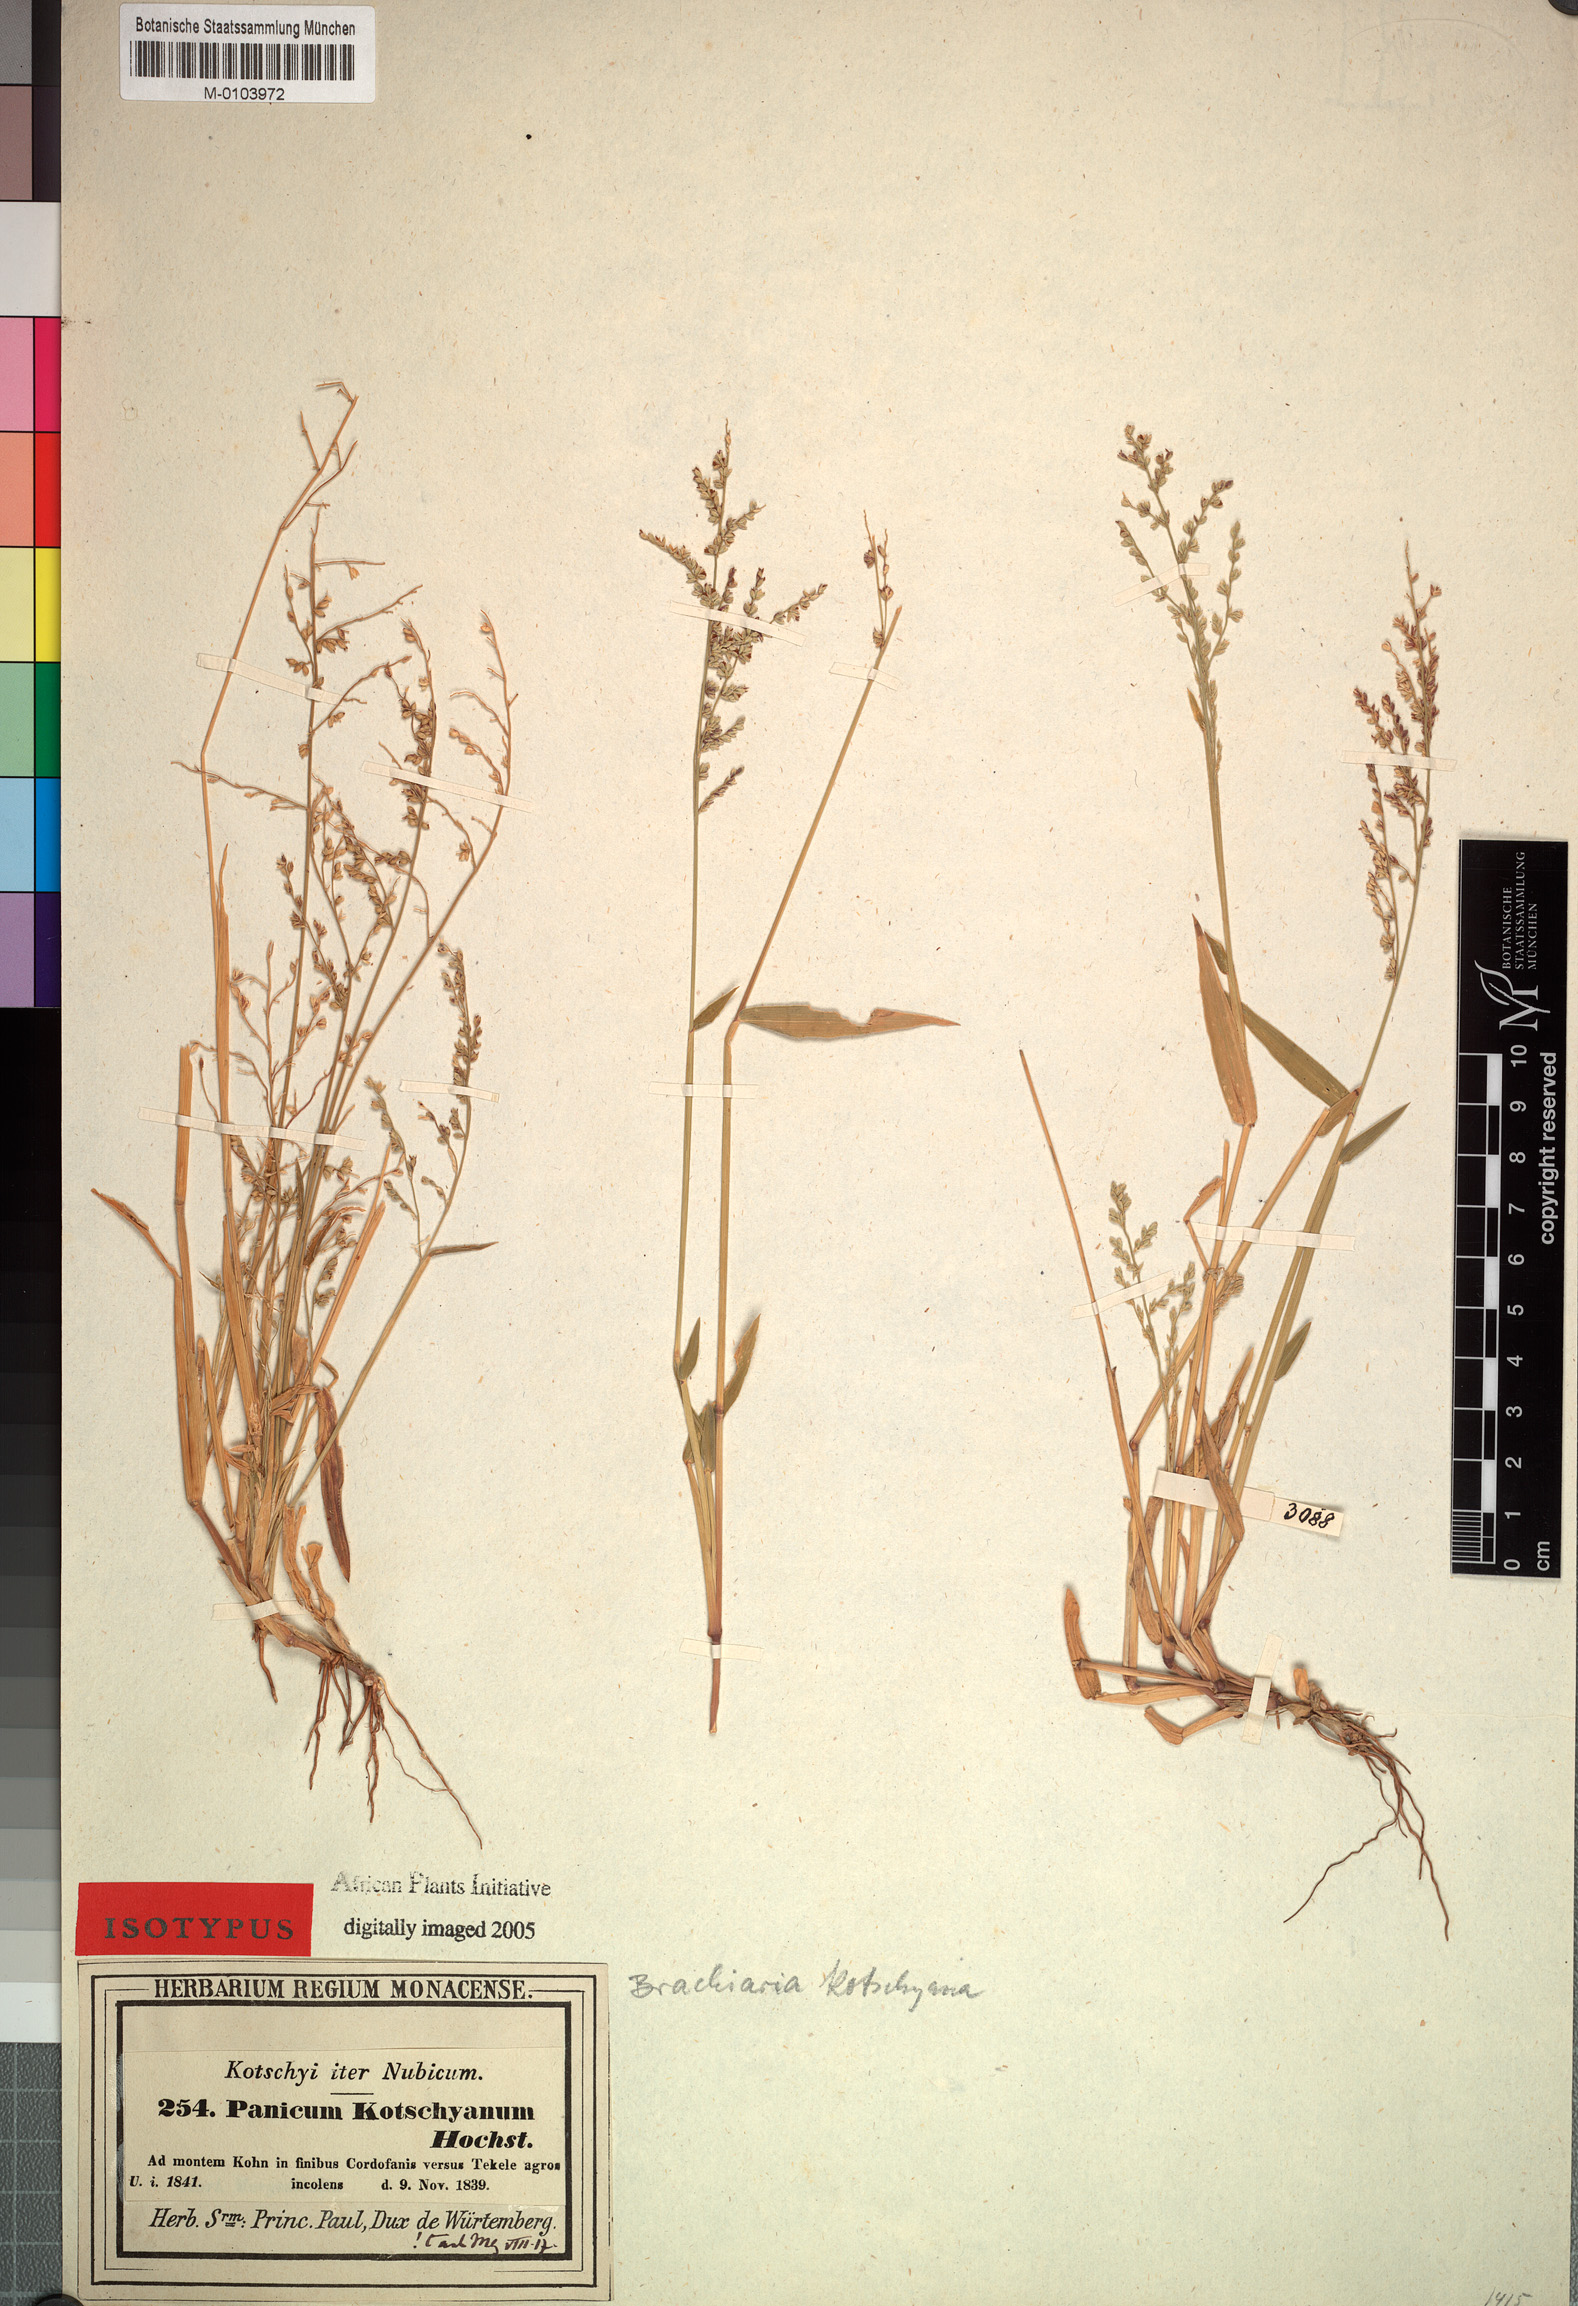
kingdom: Plantae
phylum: Tracheophyta
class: Liliopsida
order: Poales
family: Poaceae
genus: Urochloa
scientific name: Urochloa comata
